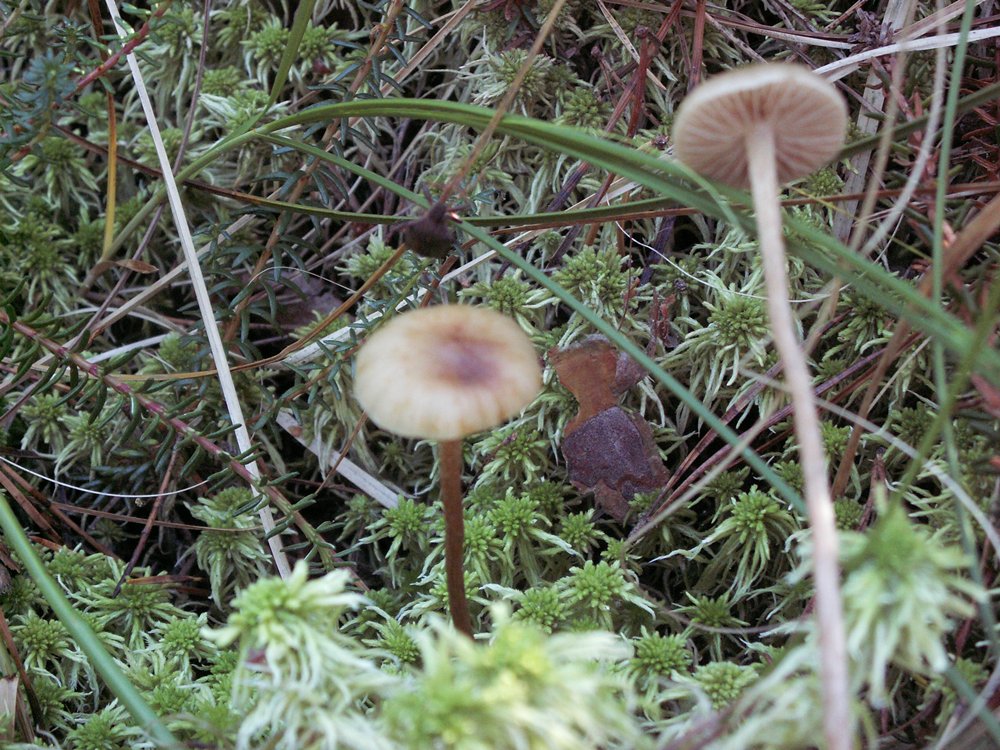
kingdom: Fungi
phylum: Basidiomycota
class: Agaricomycetes
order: Agaricales
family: Strophariaceae
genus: Hypholoma
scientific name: Hypholoma myosotis
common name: slimet svovlhat
